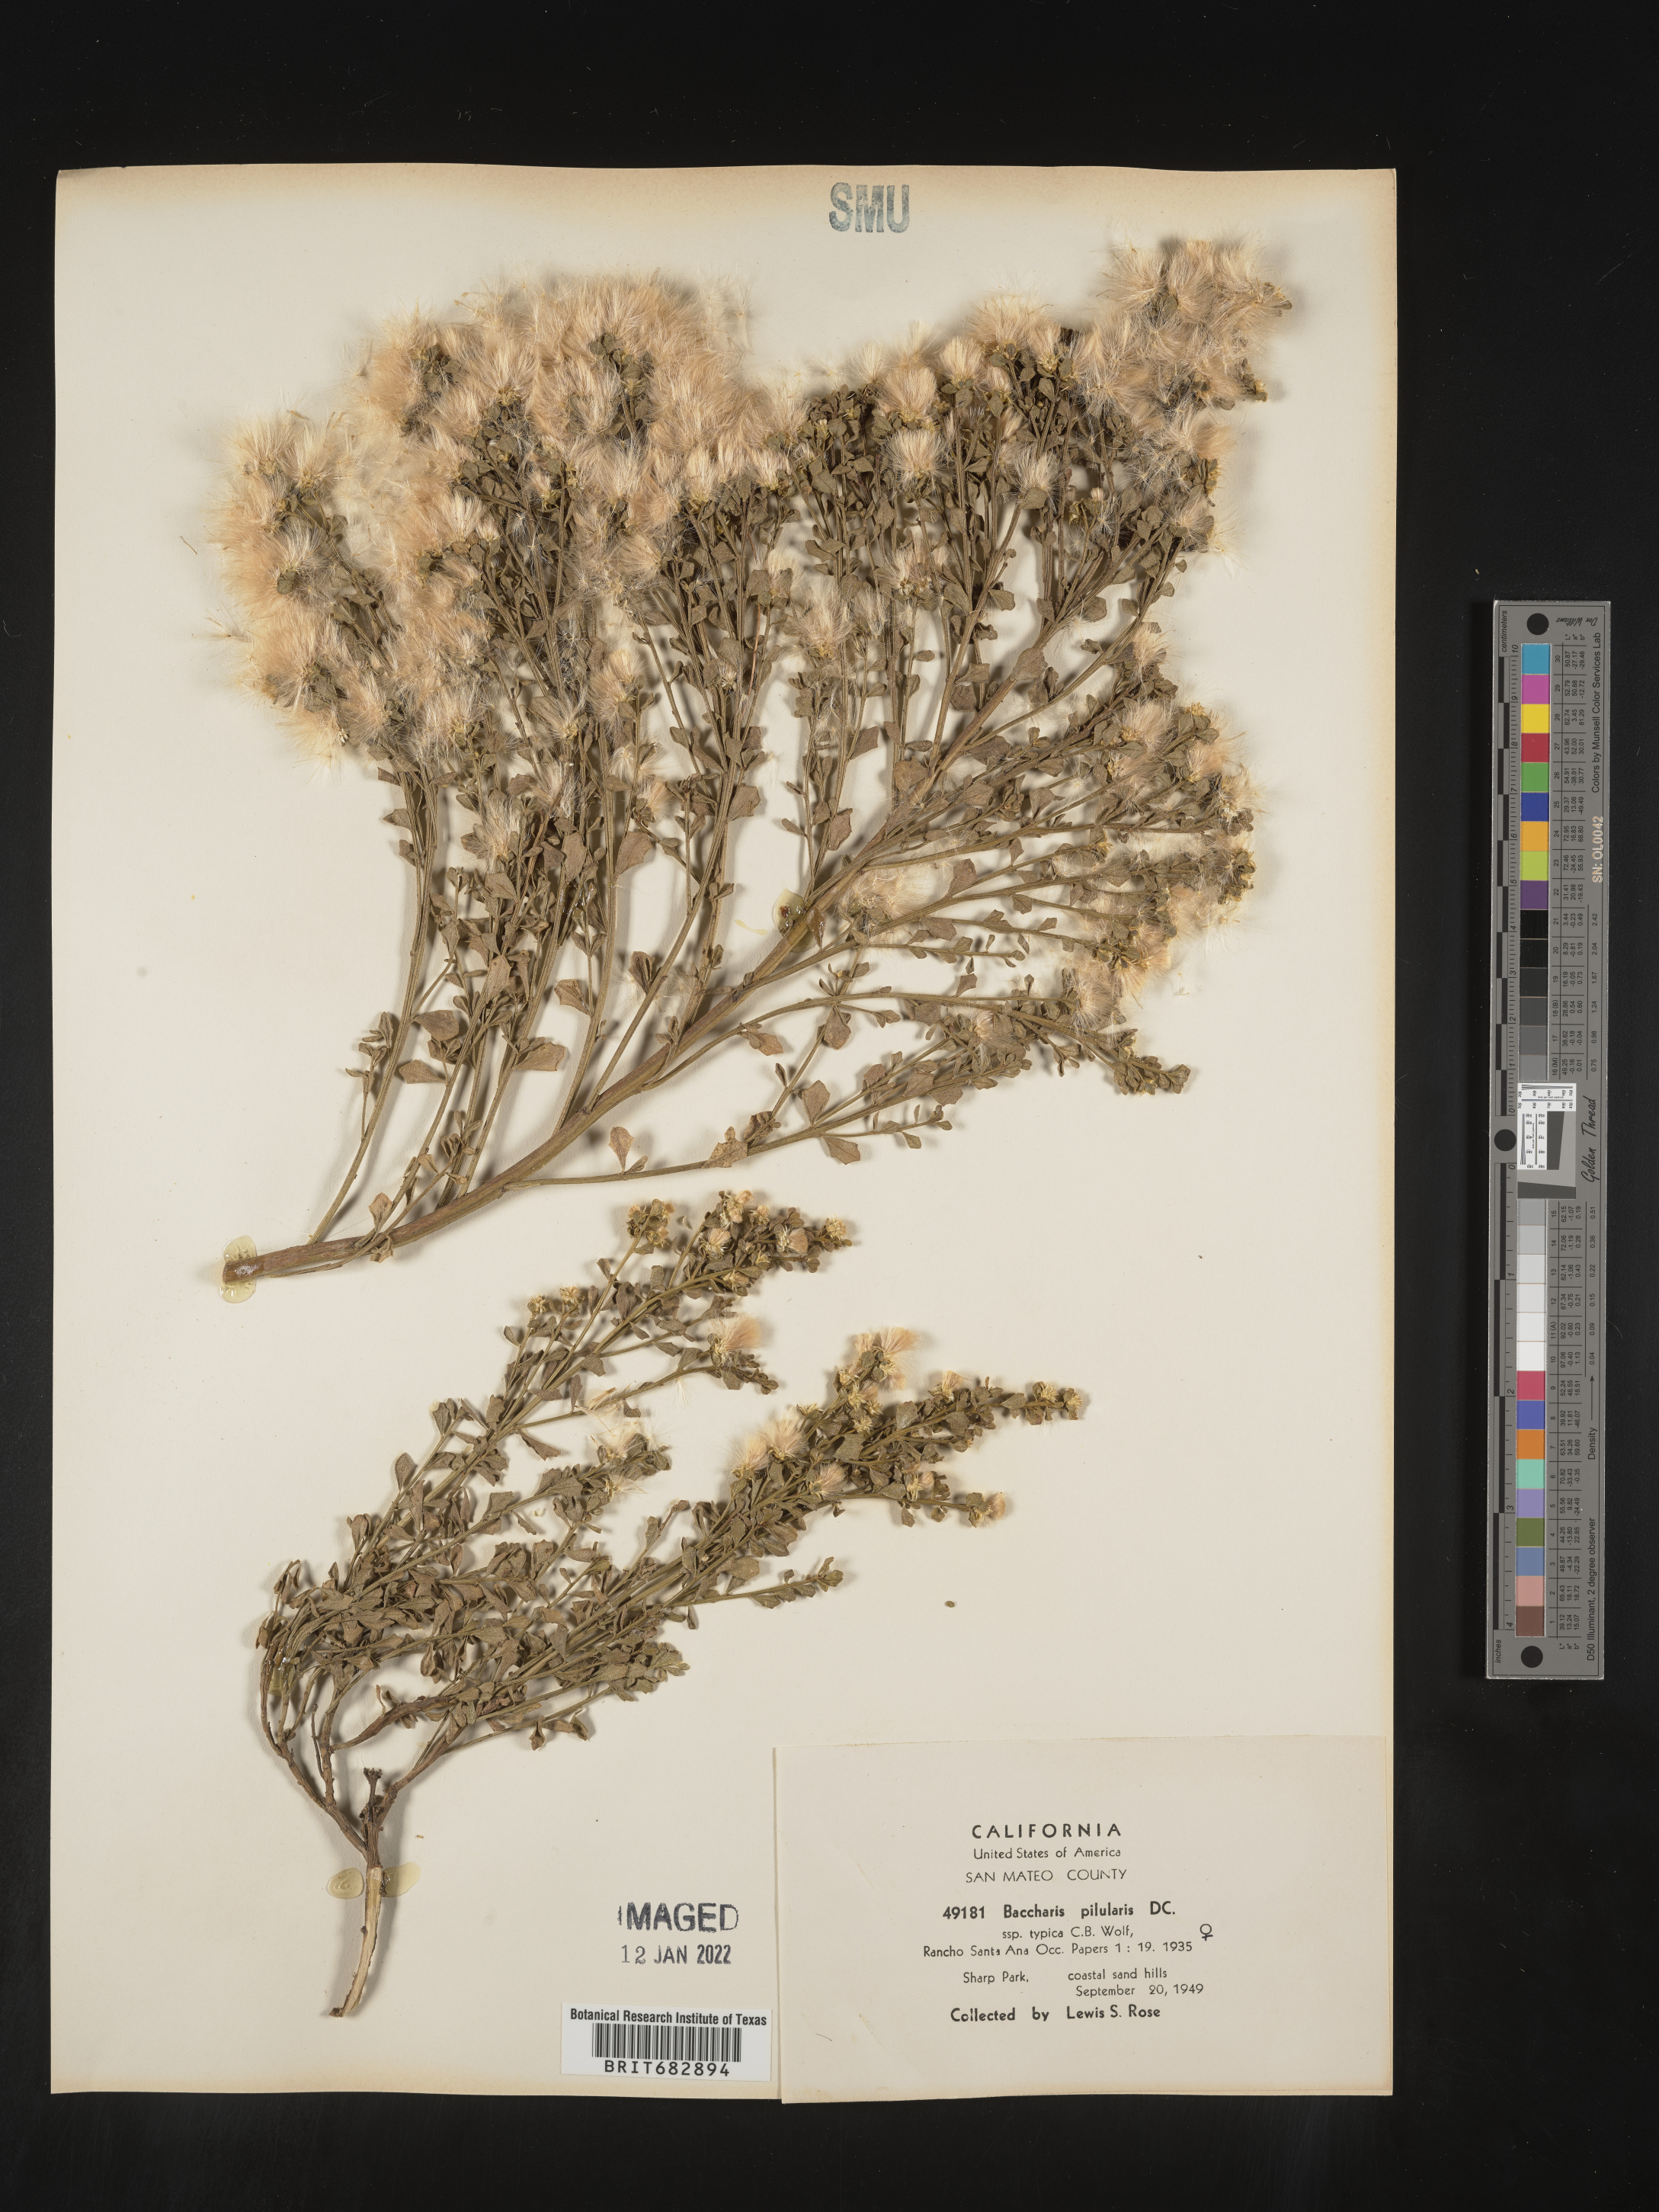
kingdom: Plantae
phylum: Tracheophyta
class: Magnoliopsida
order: Asterales
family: Asteraceae
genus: Baccharis
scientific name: Baccharis pilularis
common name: Coyotebrush
